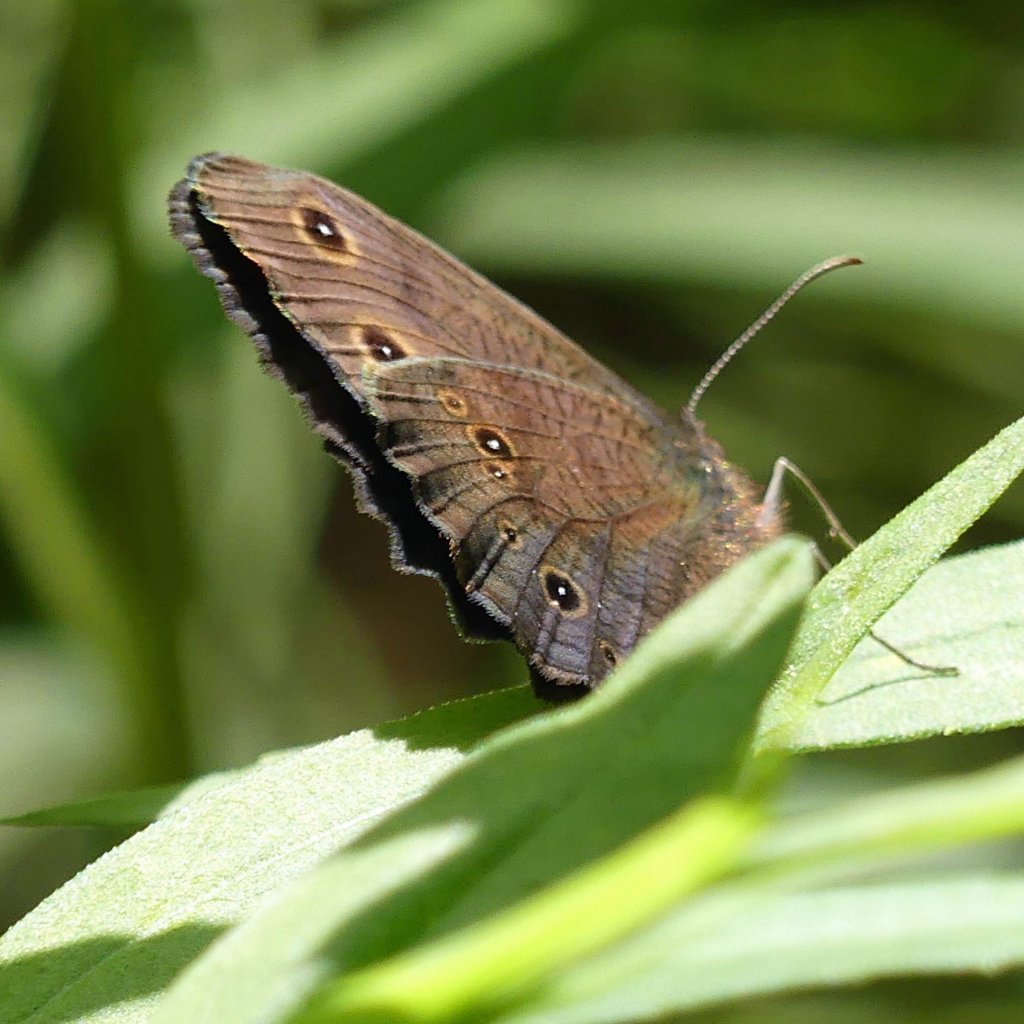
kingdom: Animalia
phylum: Arthropoda
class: Insecta
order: Lepidoptera
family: Nymphalidae
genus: Cercyonis
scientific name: Cercyonis pegala
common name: Common Wood-Nymph
